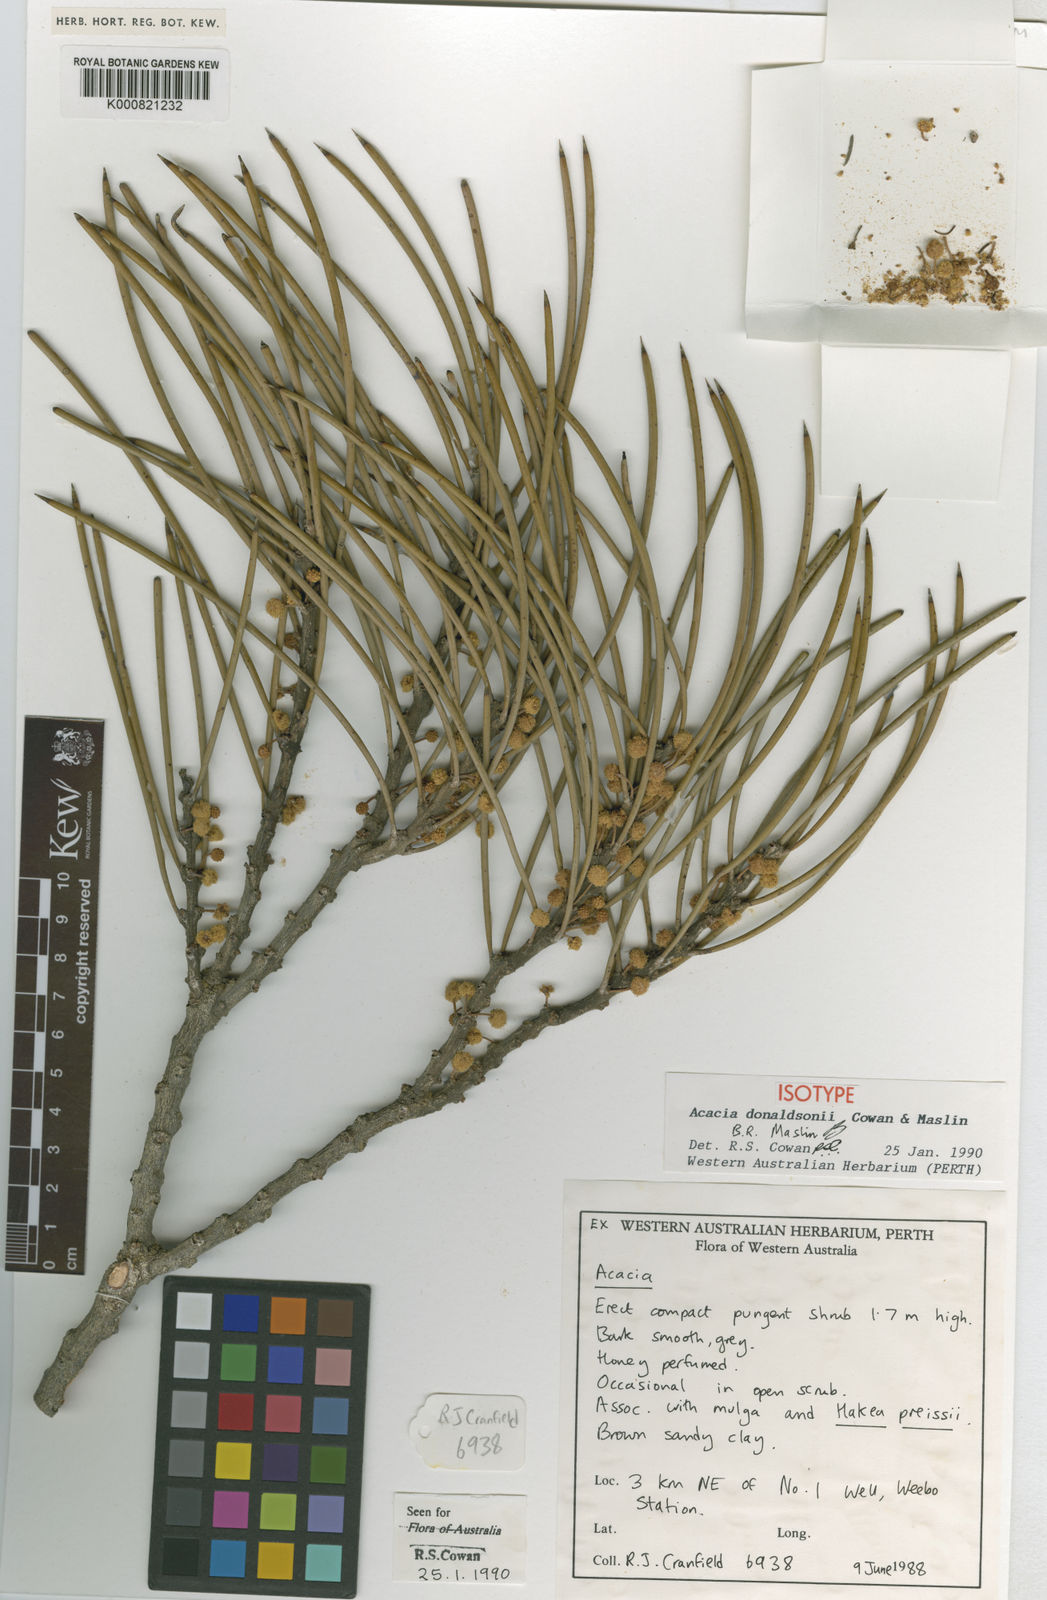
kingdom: Plantae
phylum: Tracheophyta
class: Magnoliopsida
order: Fabales
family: Fabaceae
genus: Acacia
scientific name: Acacia donaldsonii
